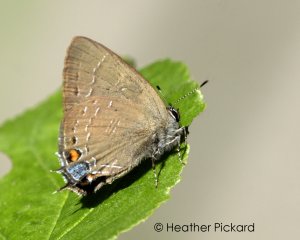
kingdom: Animalia
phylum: Arthropoda
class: Insecta
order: Lepidoptera
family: Lycaenidae
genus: Satyrium
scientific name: Satyrium calanus
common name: Banded Hairstreak
